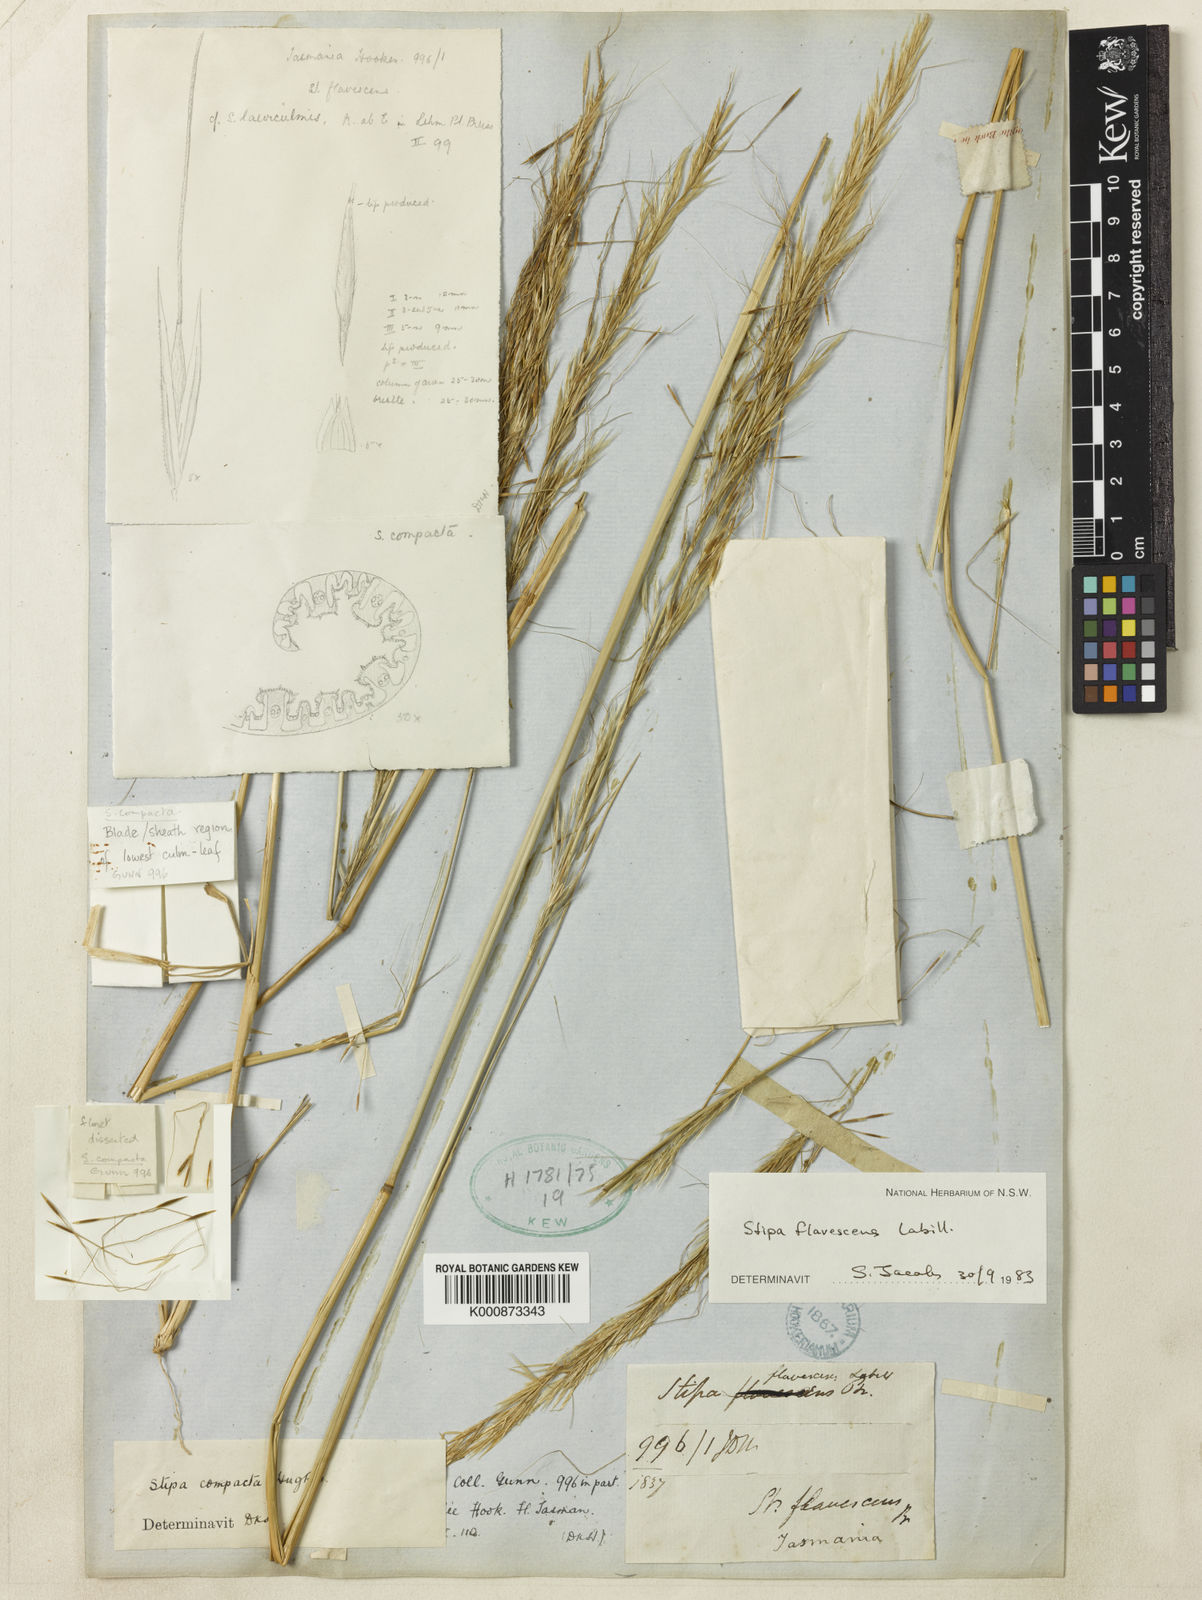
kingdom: Plantae
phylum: Tracheophyta
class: Liliopsida
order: Poales
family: Poaceae
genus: Austrostipa
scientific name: Austrostipa flavescens
